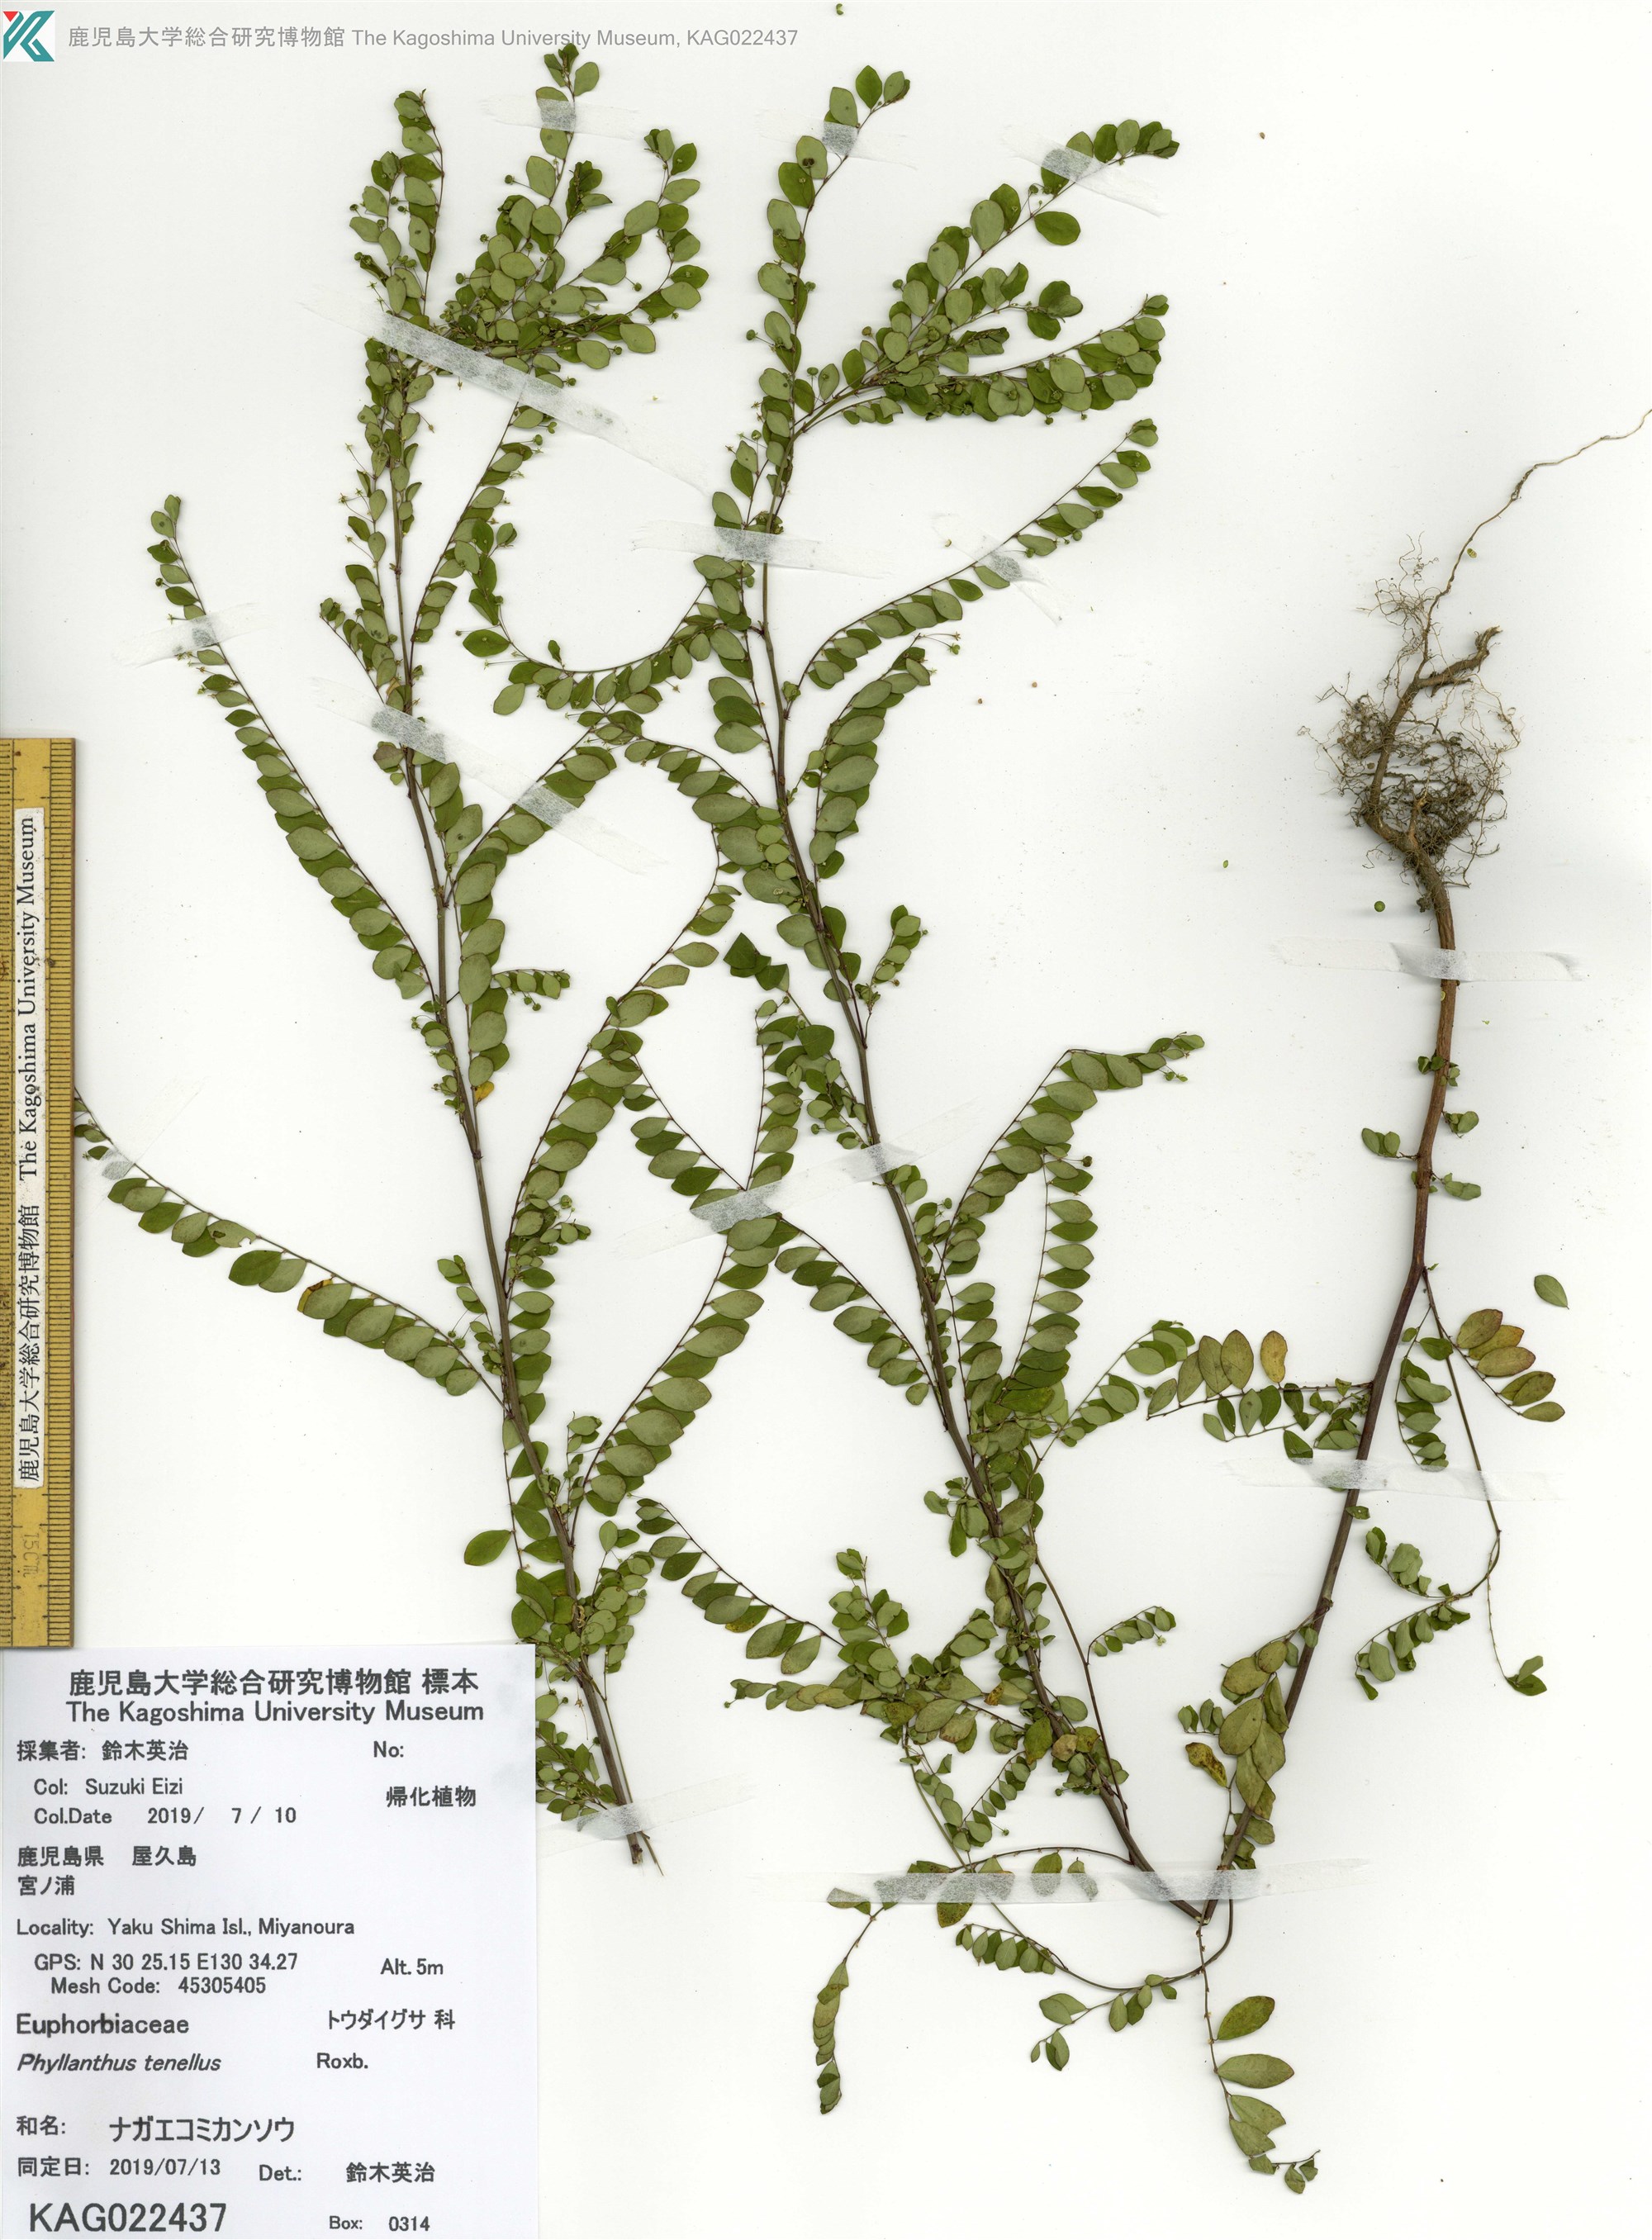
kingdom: Plantae
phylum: Tracheophyta
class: Magnoliopsida
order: Malpighiales
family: Phyllanthaceae
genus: Phyllanthus
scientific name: Phyllanthus tenellus
